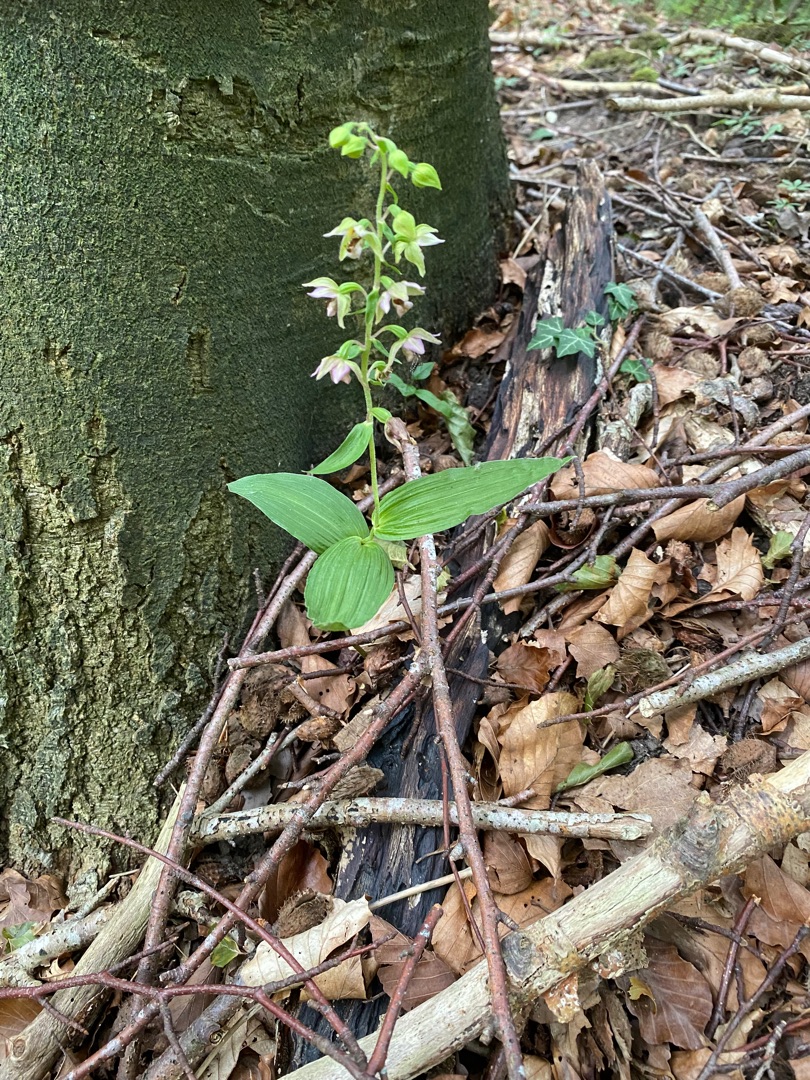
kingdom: Plantae
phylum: Tracheophyta
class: Liliopsida
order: Asparagales
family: Orchidaceae
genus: Epipactis
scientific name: Epipactis helleborine
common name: Skov-hullæbe
